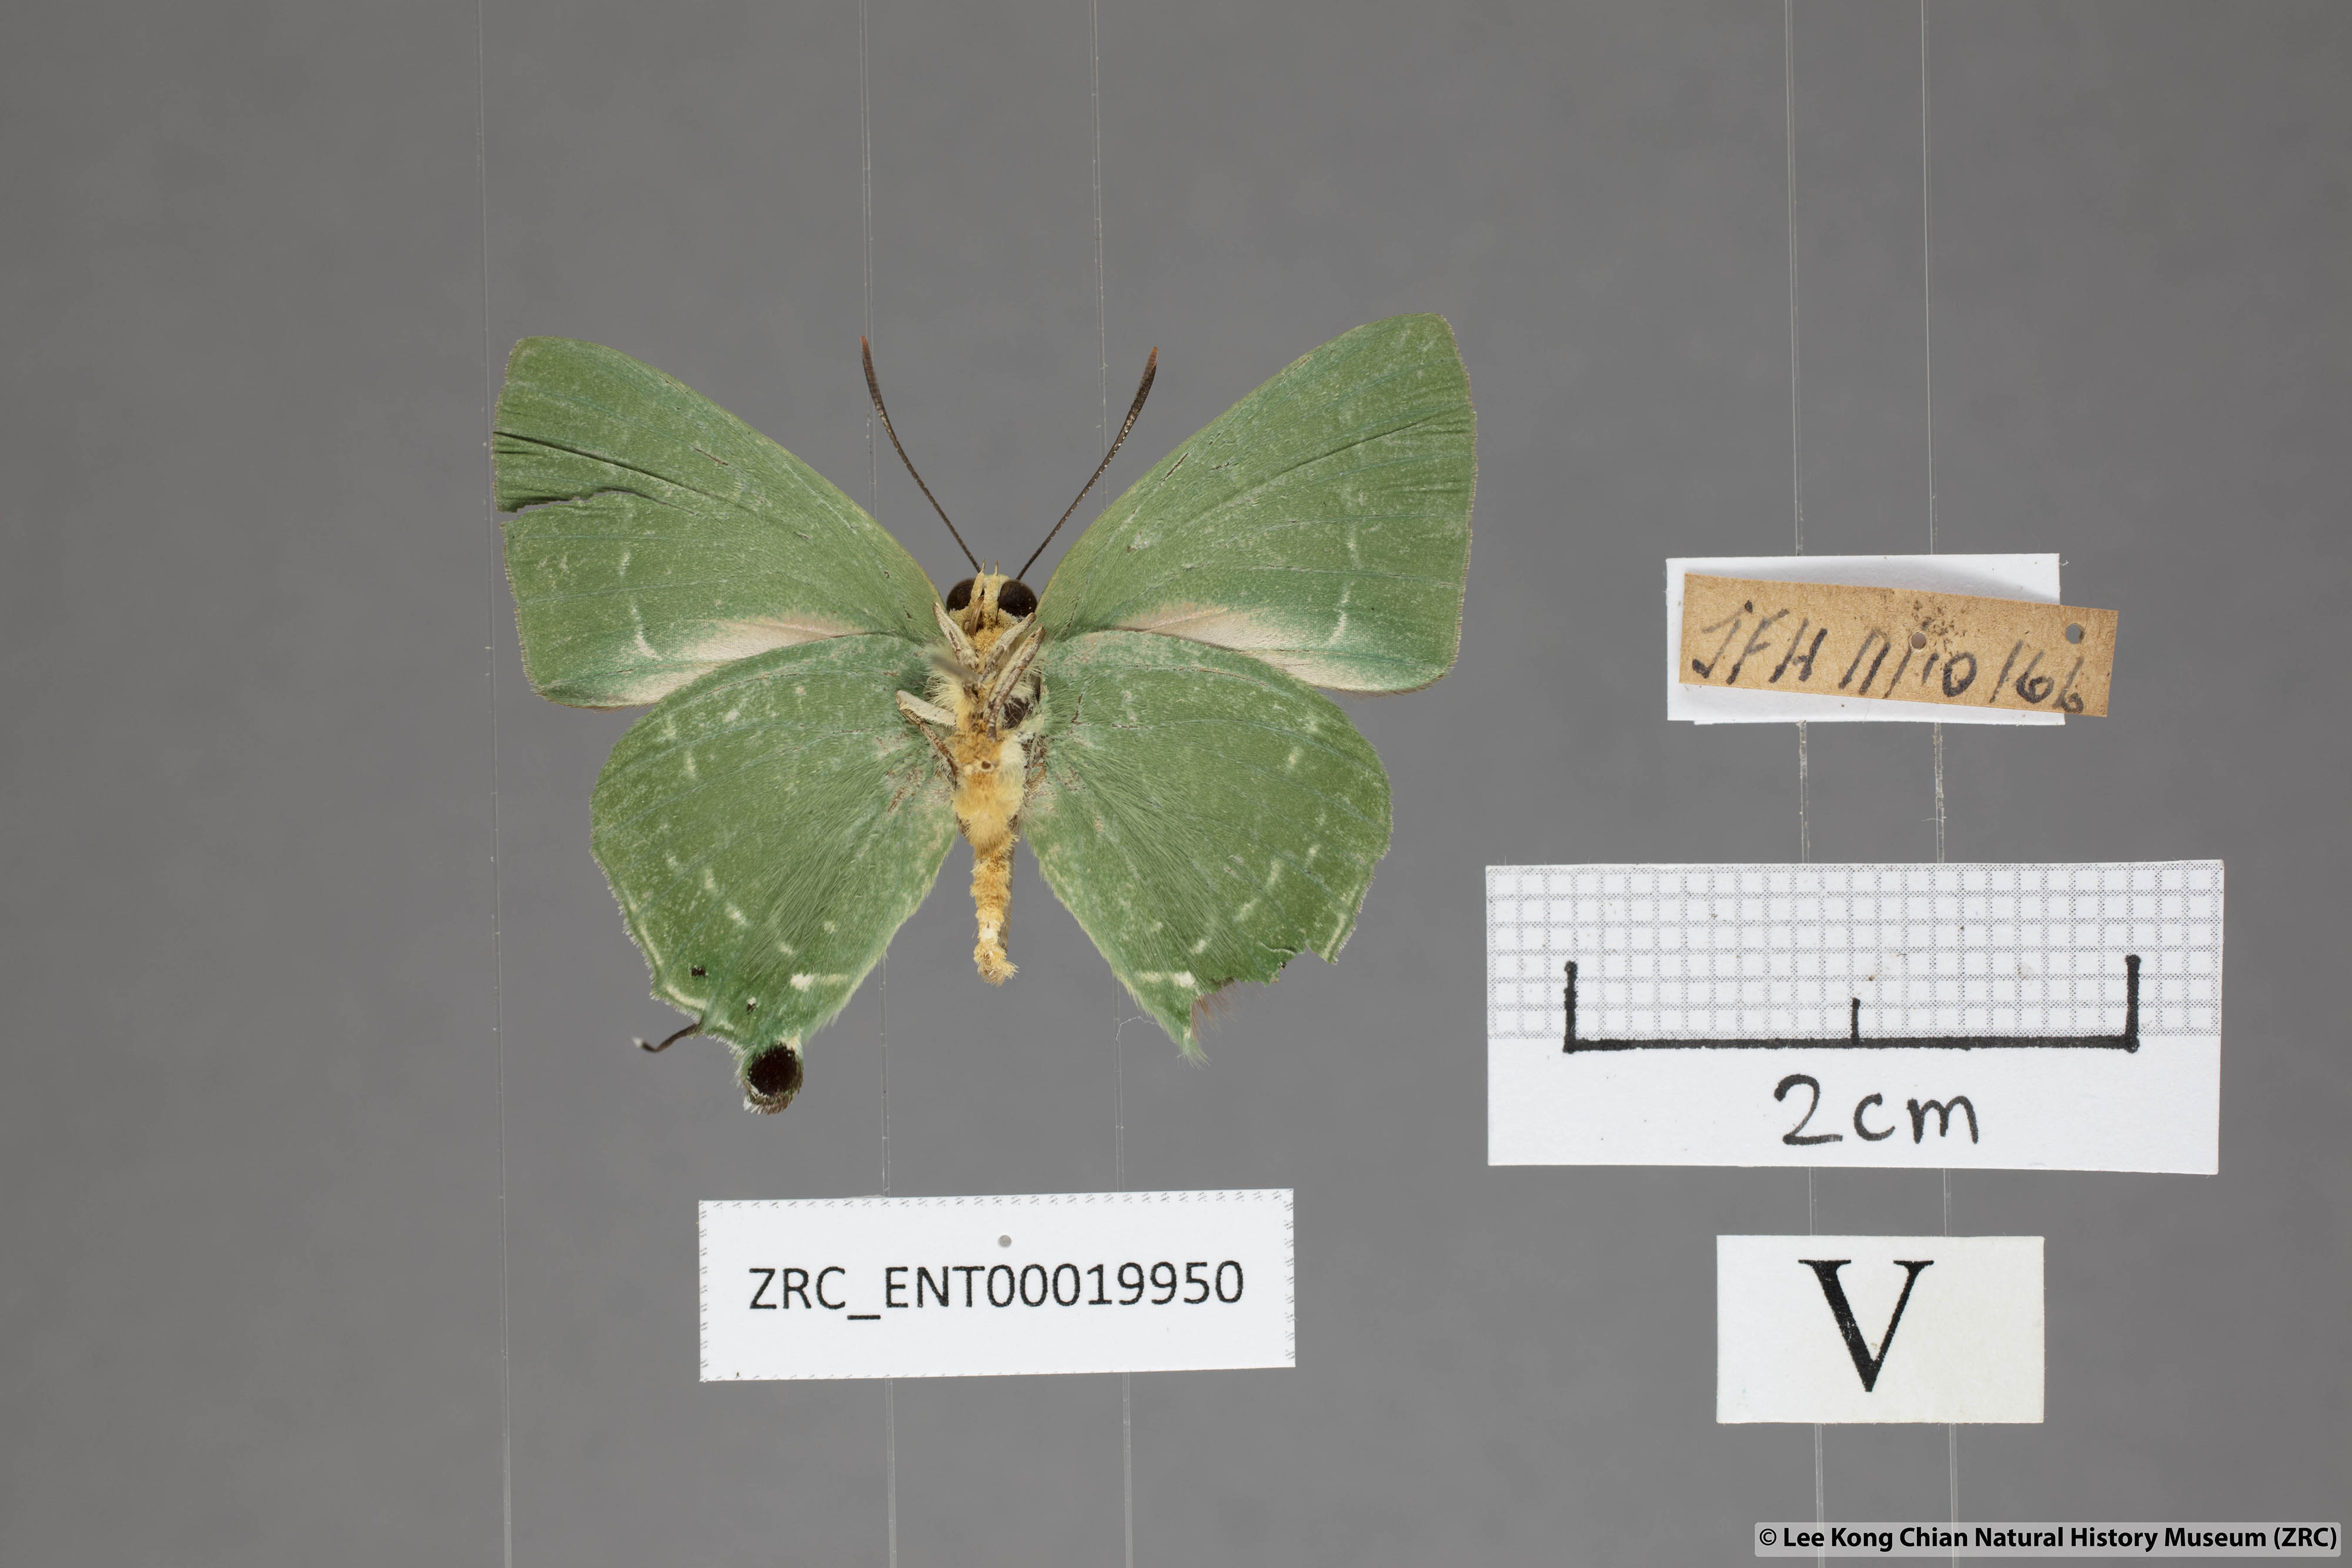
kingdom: Animalia
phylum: Arthropoda
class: Insecta
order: Lepidoptera
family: Lycaenidae
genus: Artipe
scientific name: Artipe eryx
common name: Green flash
